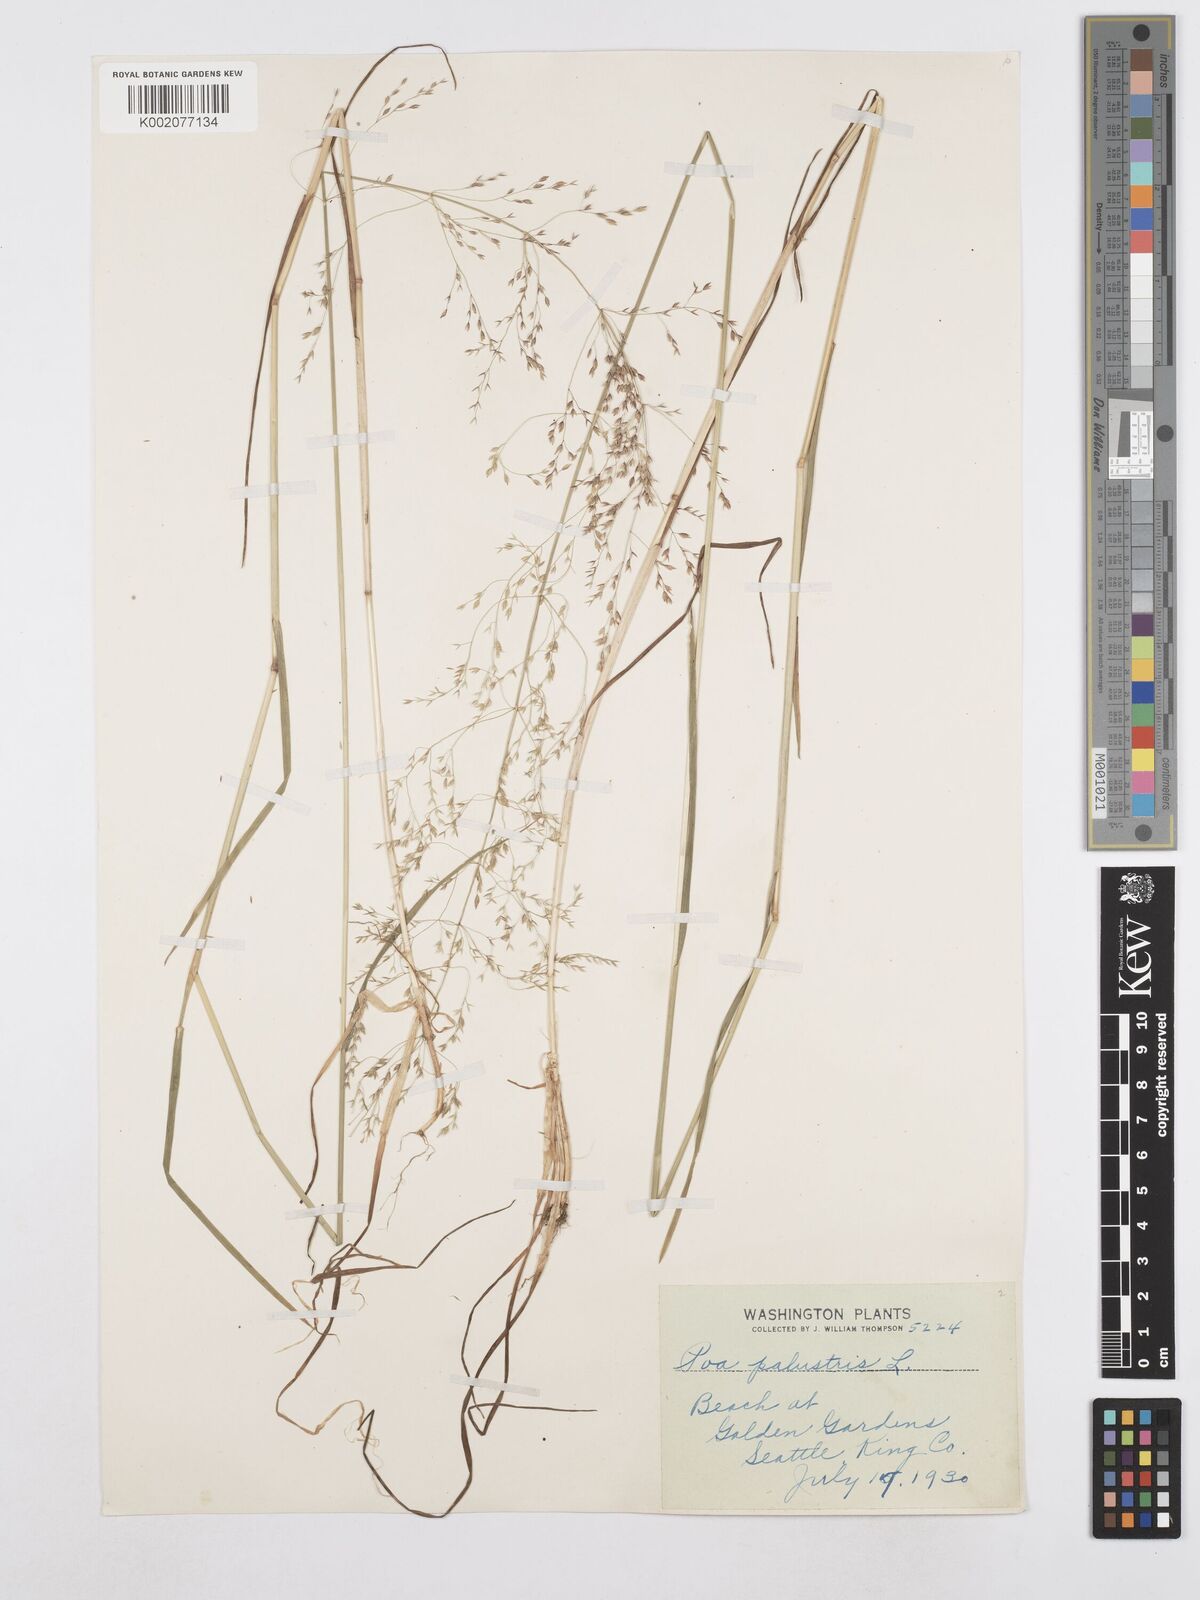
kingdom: Plantae
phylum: Tracheophyta
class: Liliopsida
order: Poales
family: Poaceae
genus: Poa
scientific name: Poa palustris
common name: Swamp meadow-grass
